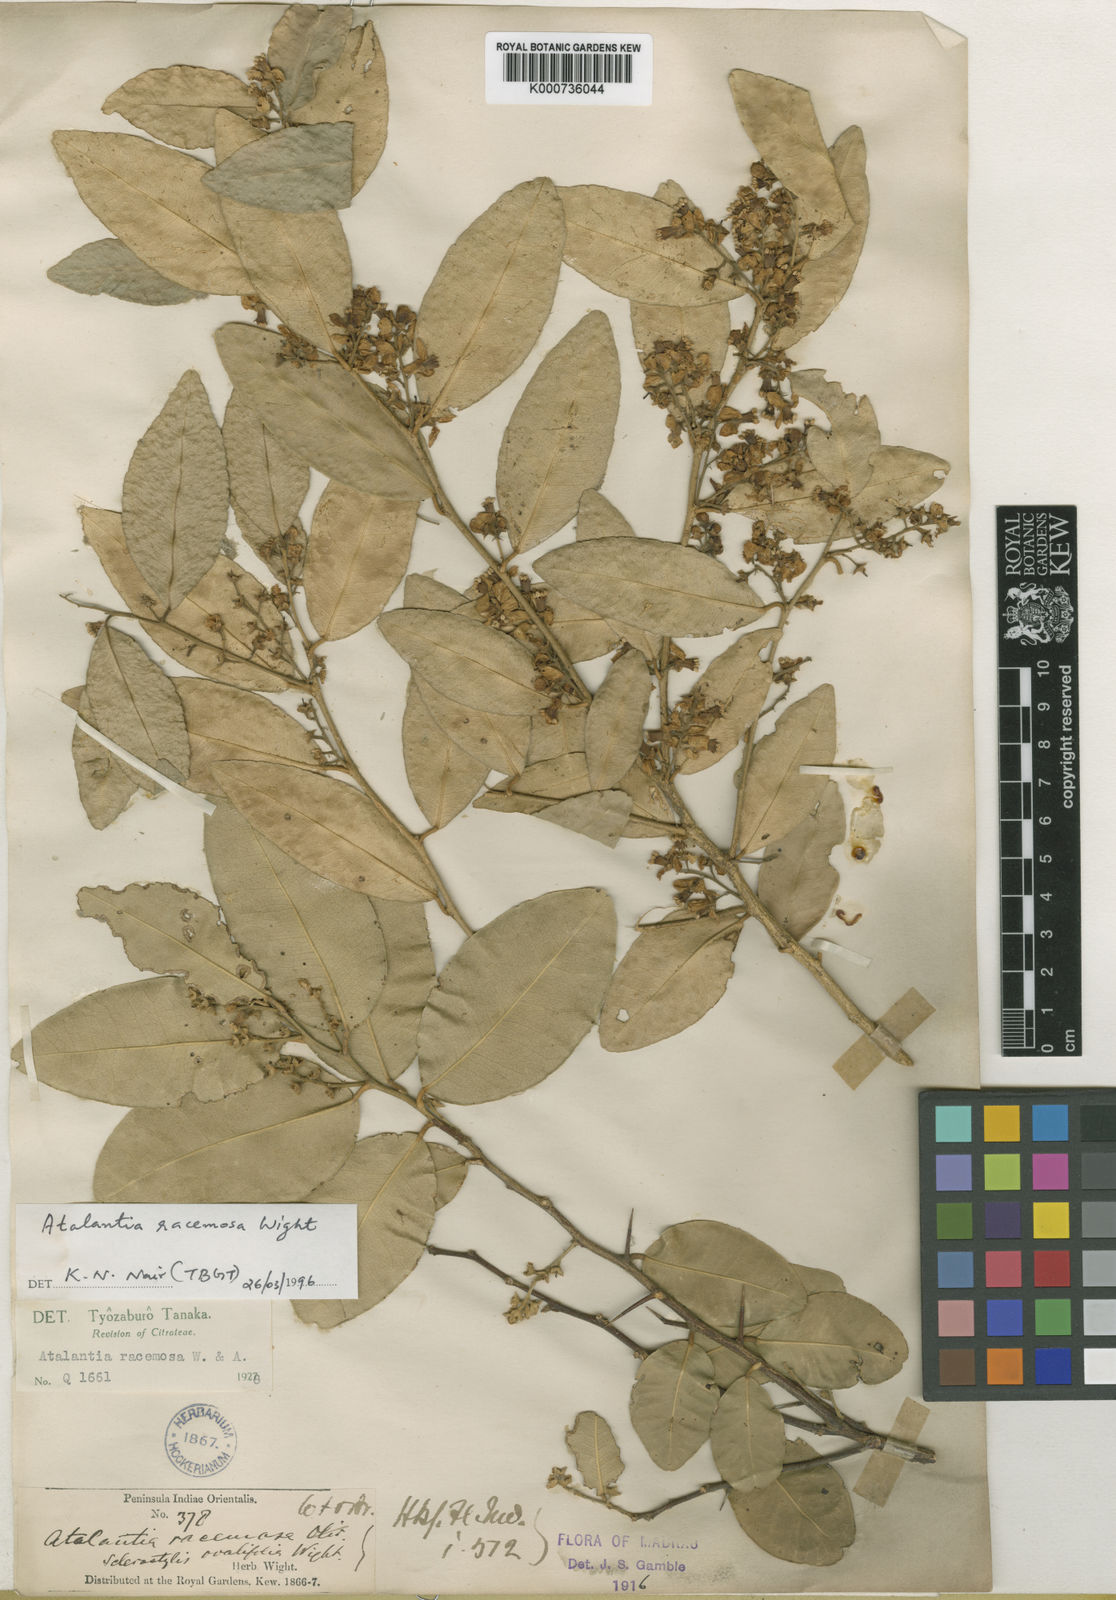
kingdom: Plantae
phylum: Tracheophyta
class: Magnoliopsida
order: Sapindales
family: Rutaceae
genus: Atalantia
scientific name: Atalantia
